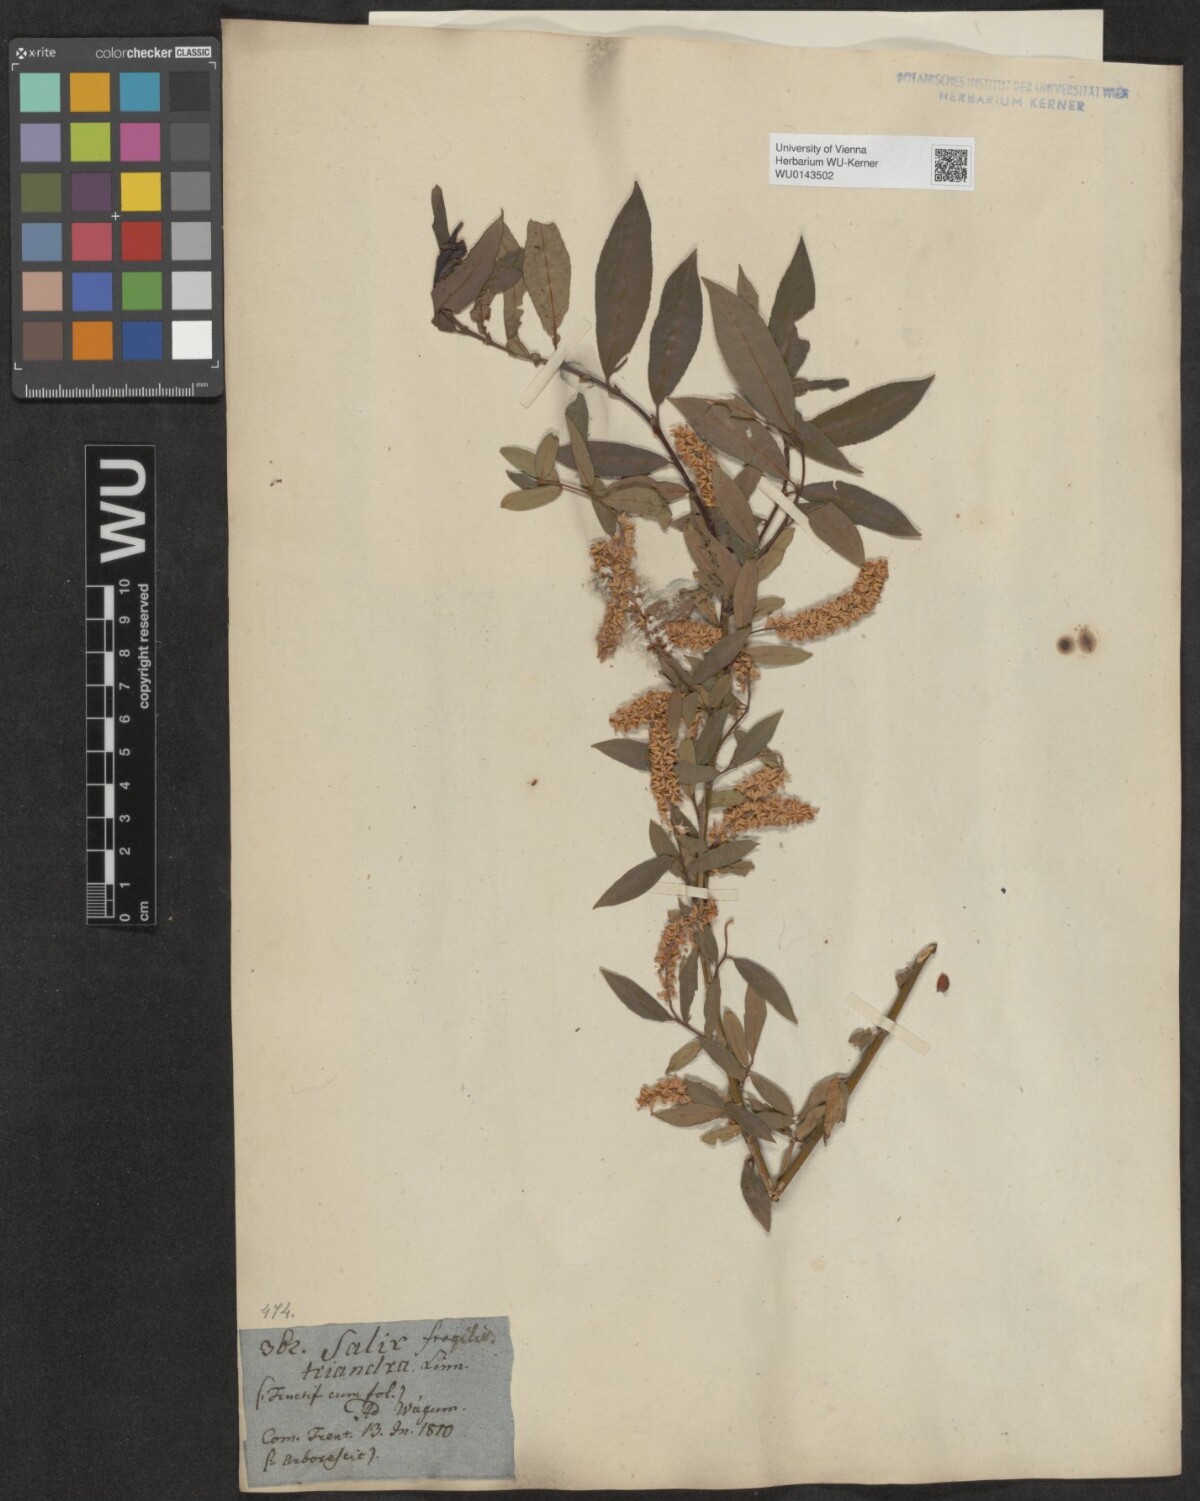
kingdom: Plantae
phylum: Tracheophyta
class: Magnoliopsida
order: Malpighiales
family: Salicaceae
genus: Salix
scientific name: Salix triandra
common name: Almond willow
